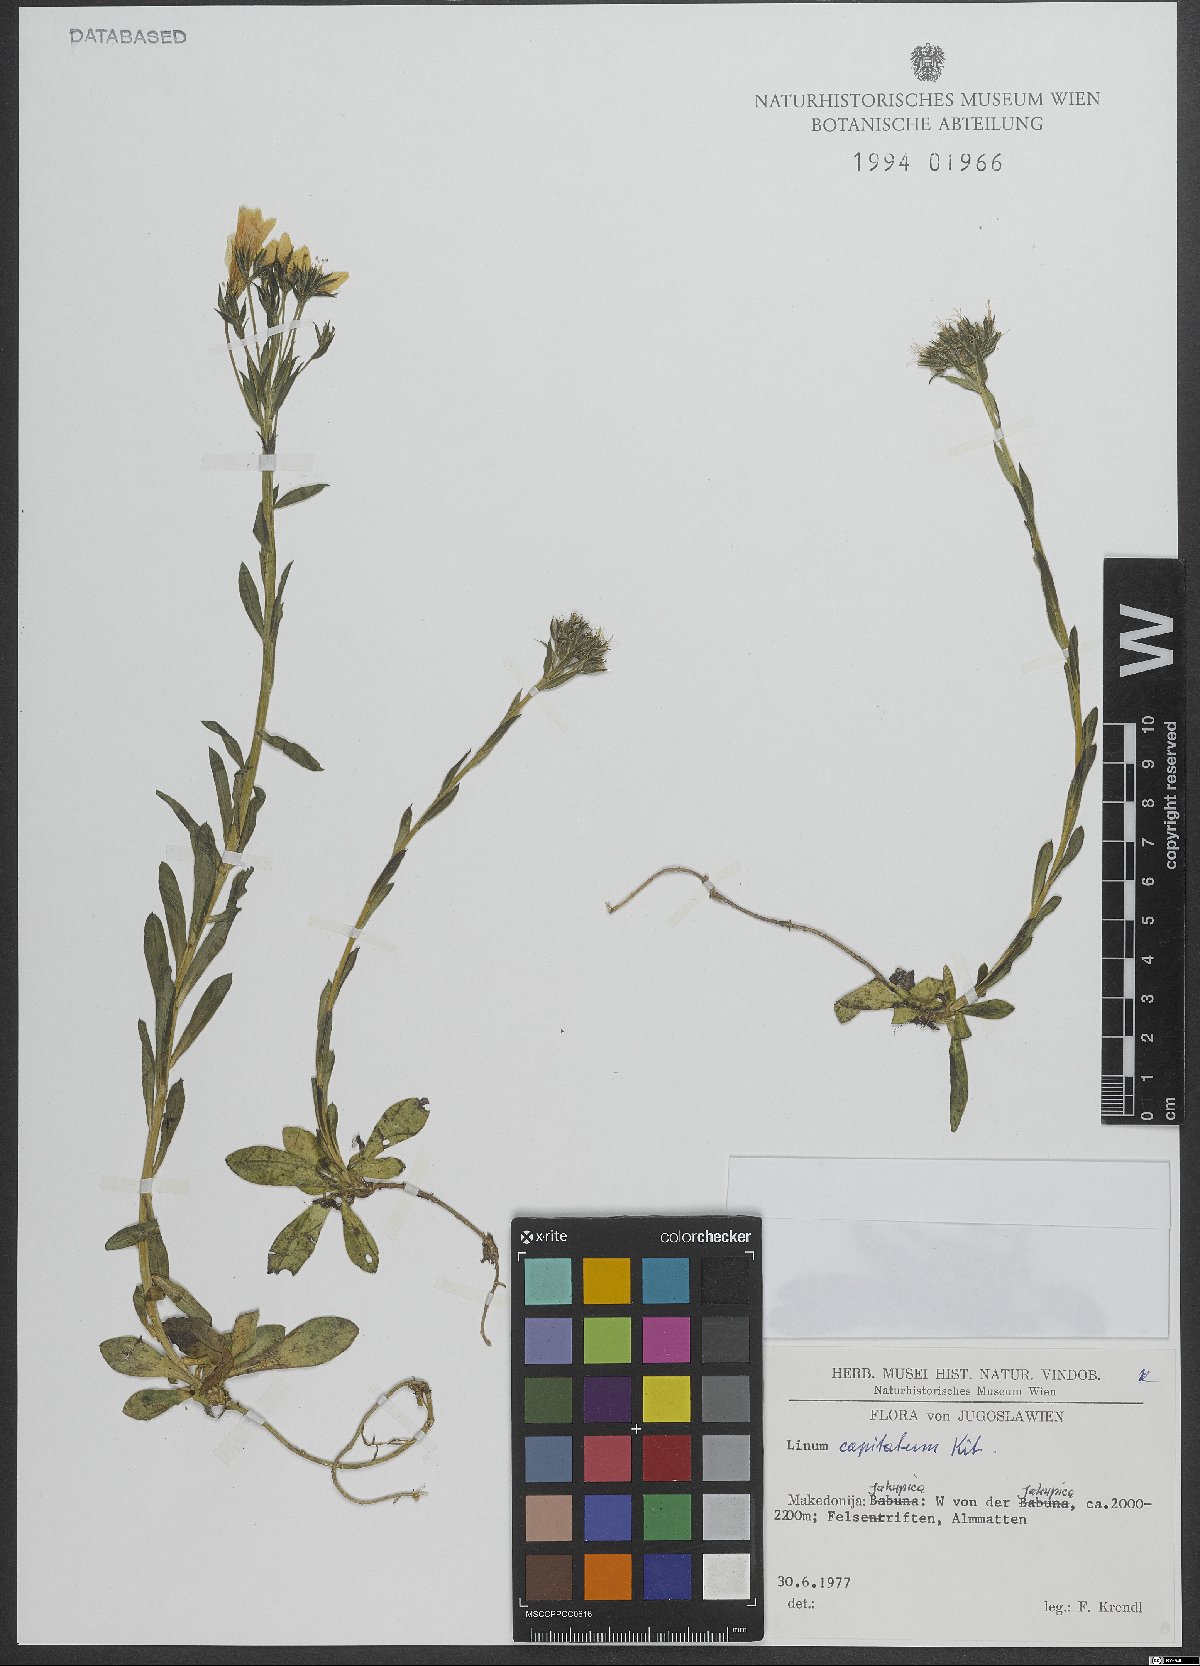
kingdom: Plantae
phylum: Tracheophyta
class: Magnoliopsida
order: Malpighiales
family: Linaceae
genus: Linum
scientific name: Linum capitatum
